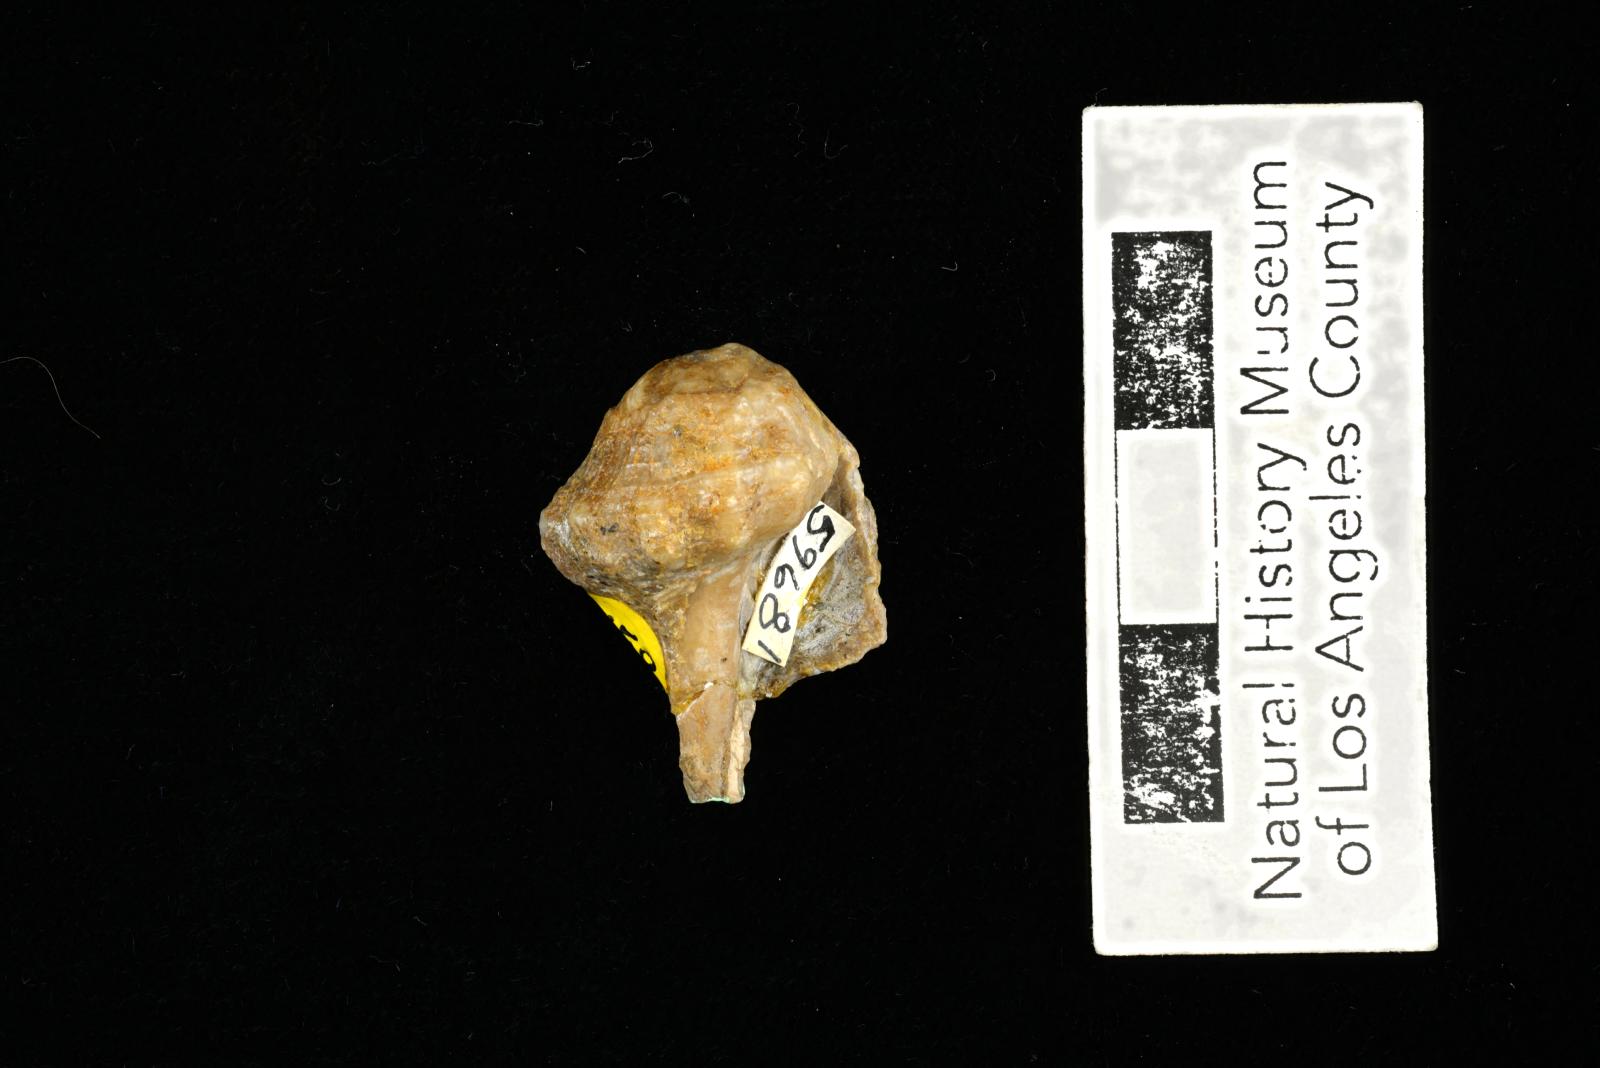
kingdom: Animalia
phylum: Mollusca
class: Gastropoda
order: Neogastropoda
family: Perissityidae
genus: Perissitys
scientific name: Perissitys Perissolax brevirostris
